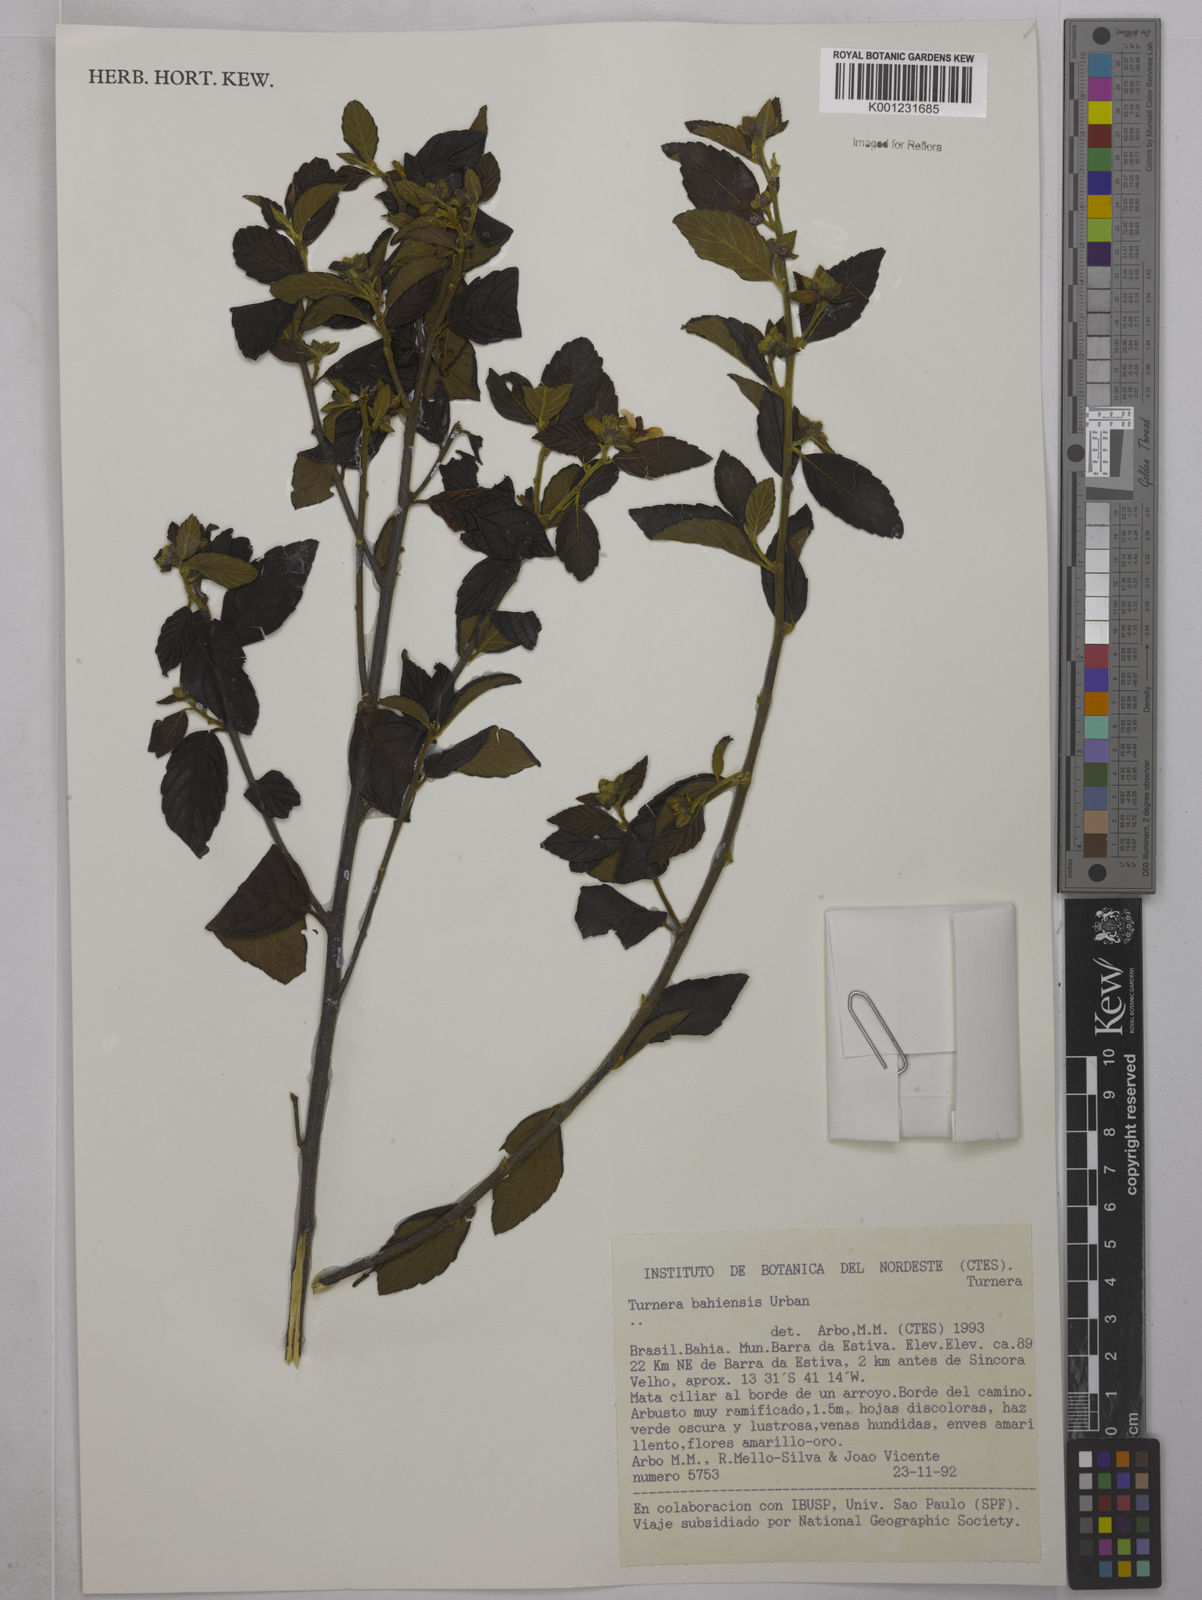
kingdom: Plantae
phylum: Tracheophyta
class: Magnoliopsida
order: Malpighiales
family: Turneraceae
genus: Turnera
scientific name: Turnera bahiensis
